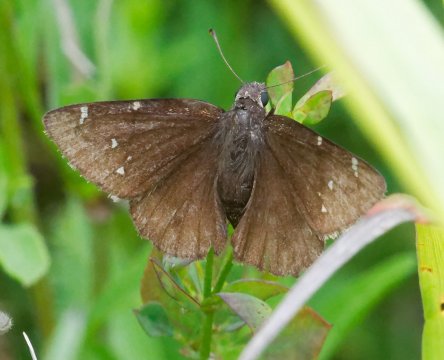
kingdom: Animalia
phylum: Arthropoda
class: Insecta
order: Lepidoptera
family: Hesperiidae
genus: Autochton
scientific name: Autochton
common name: Northern Cloudywing
